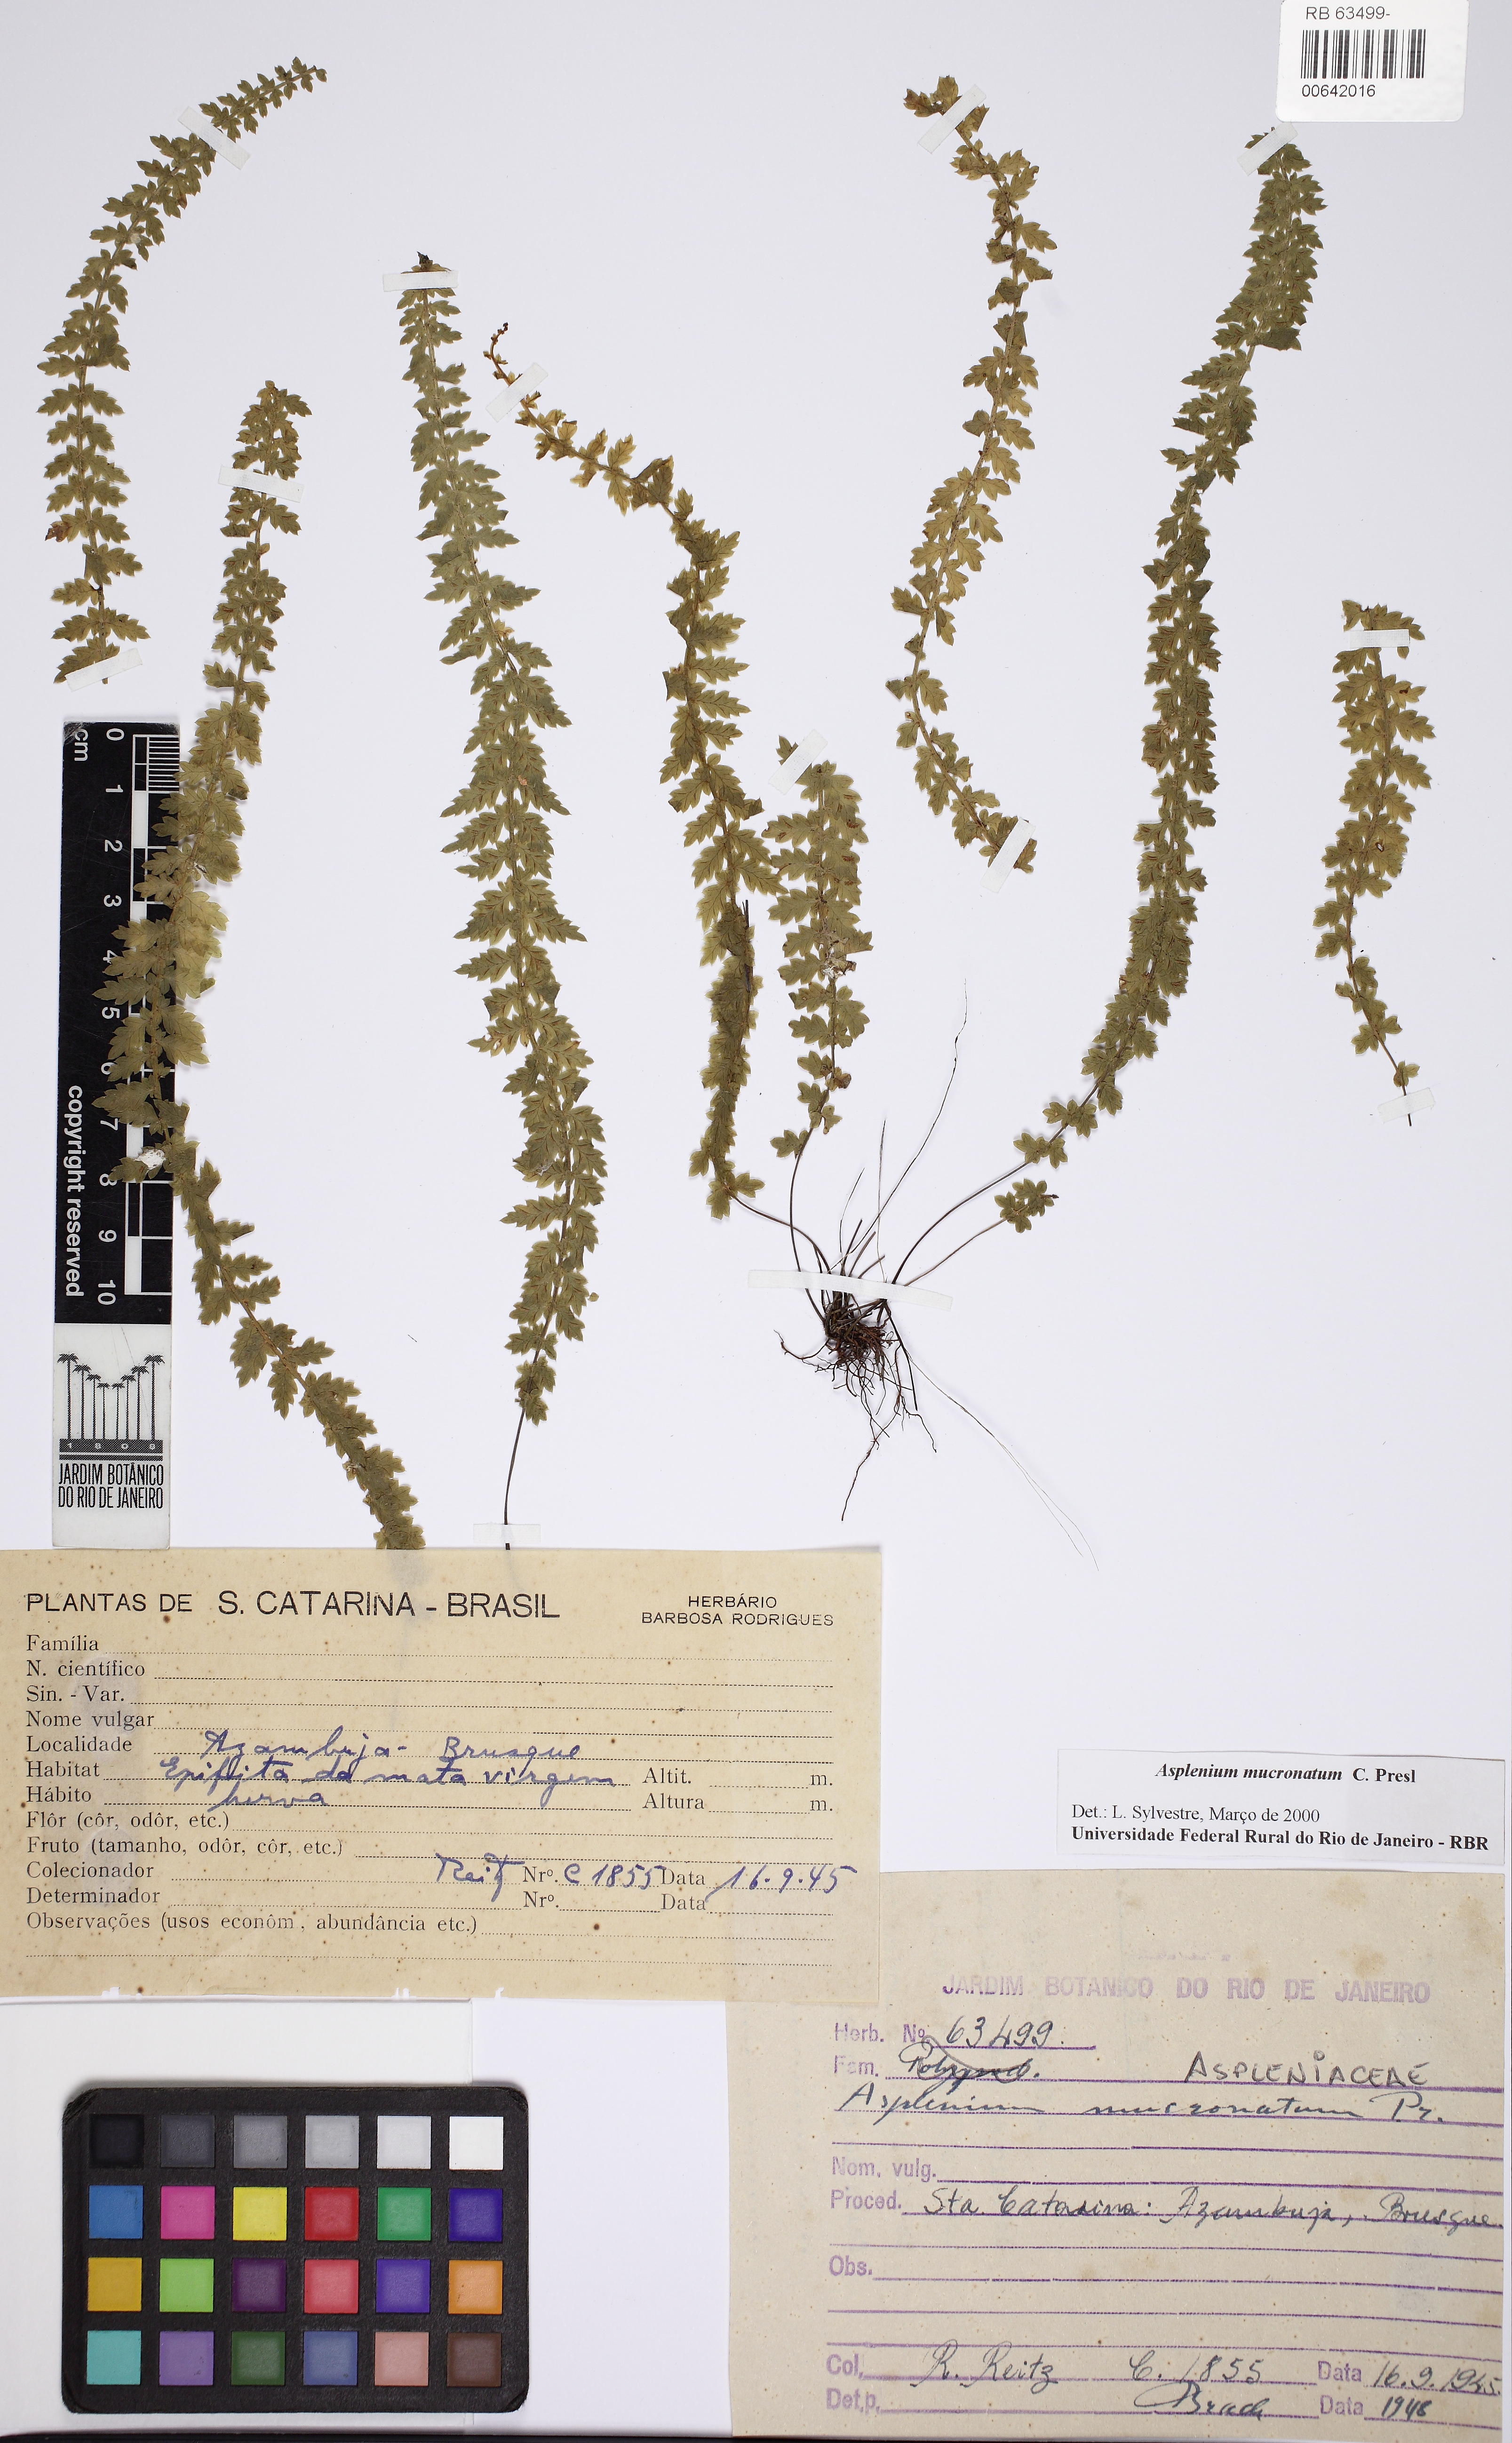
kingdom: Plantae
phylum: Tracheophyta
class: Polypodiopsida
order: Polypodiales
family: Aspleniaceae
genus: Asplenium
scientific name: Asplenium mucronatum
